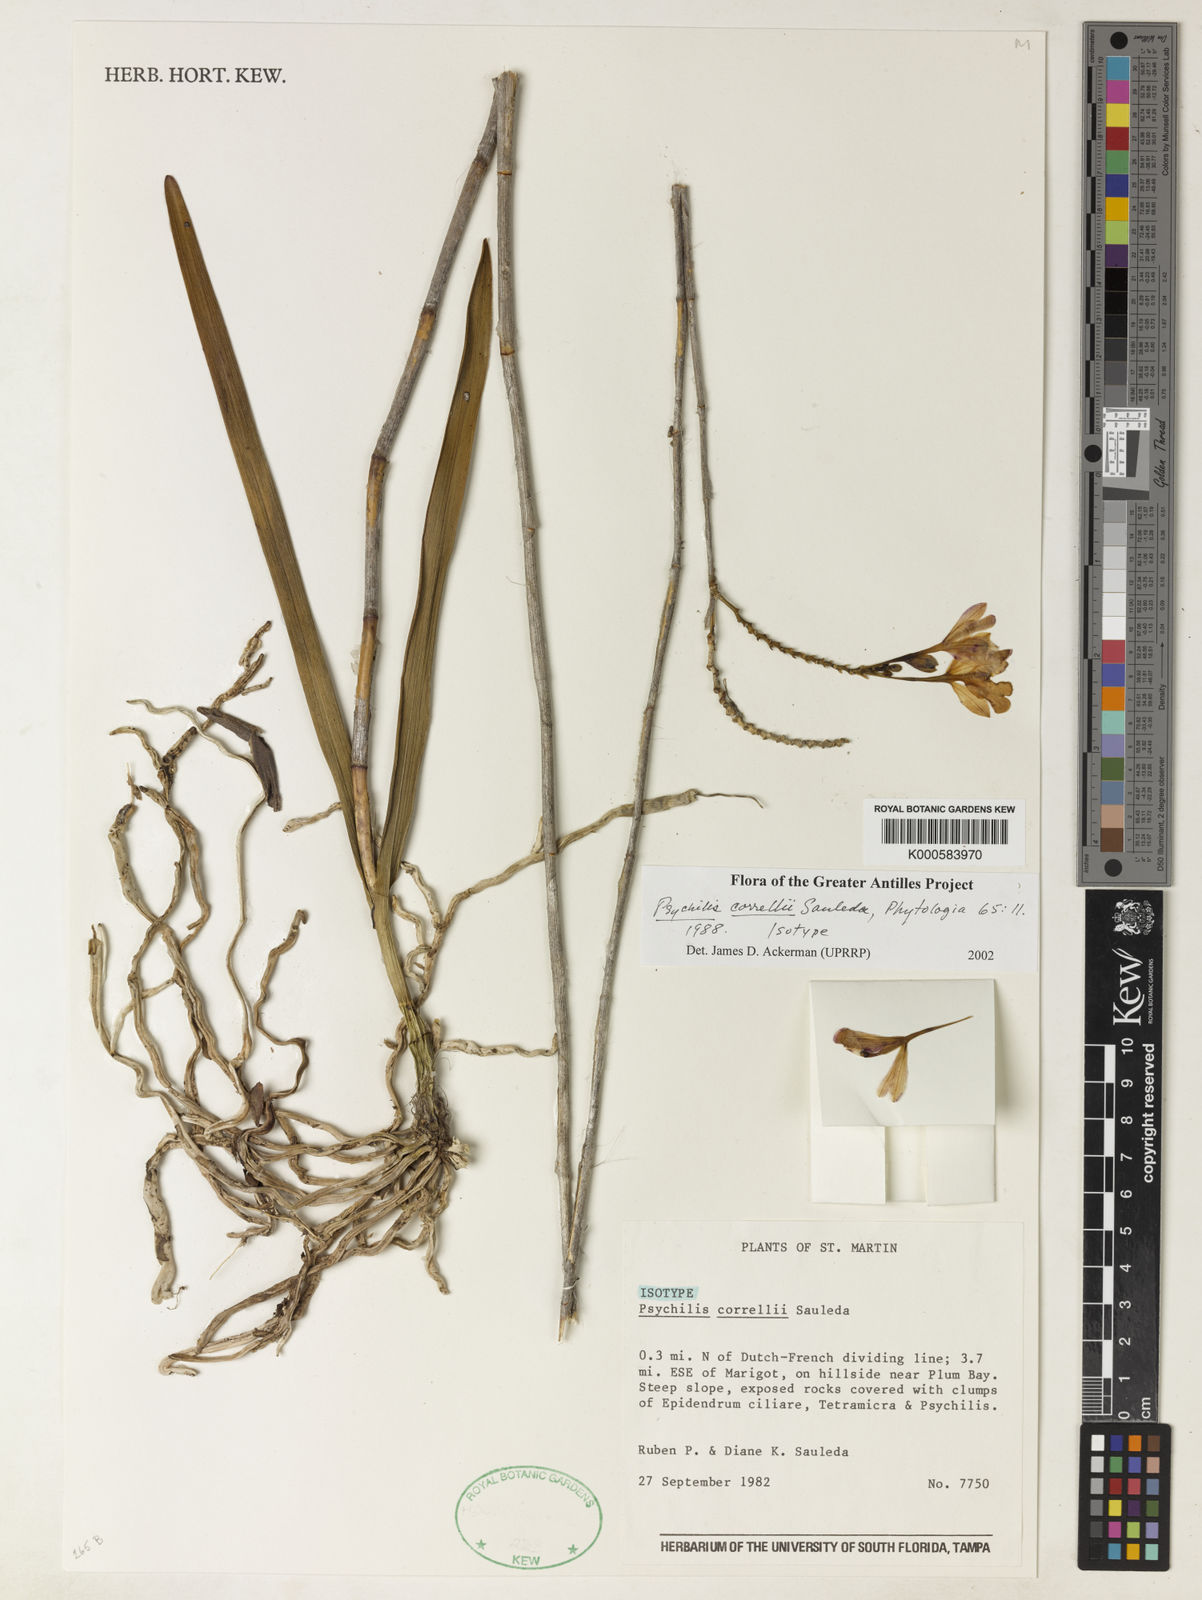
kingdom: Plantae
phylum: Tracheophyta
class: Liliopsida
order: Asparagales
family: Orchidaceae
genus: Psychilis
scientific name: Psychilis correllii
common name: Correll's psychilis
